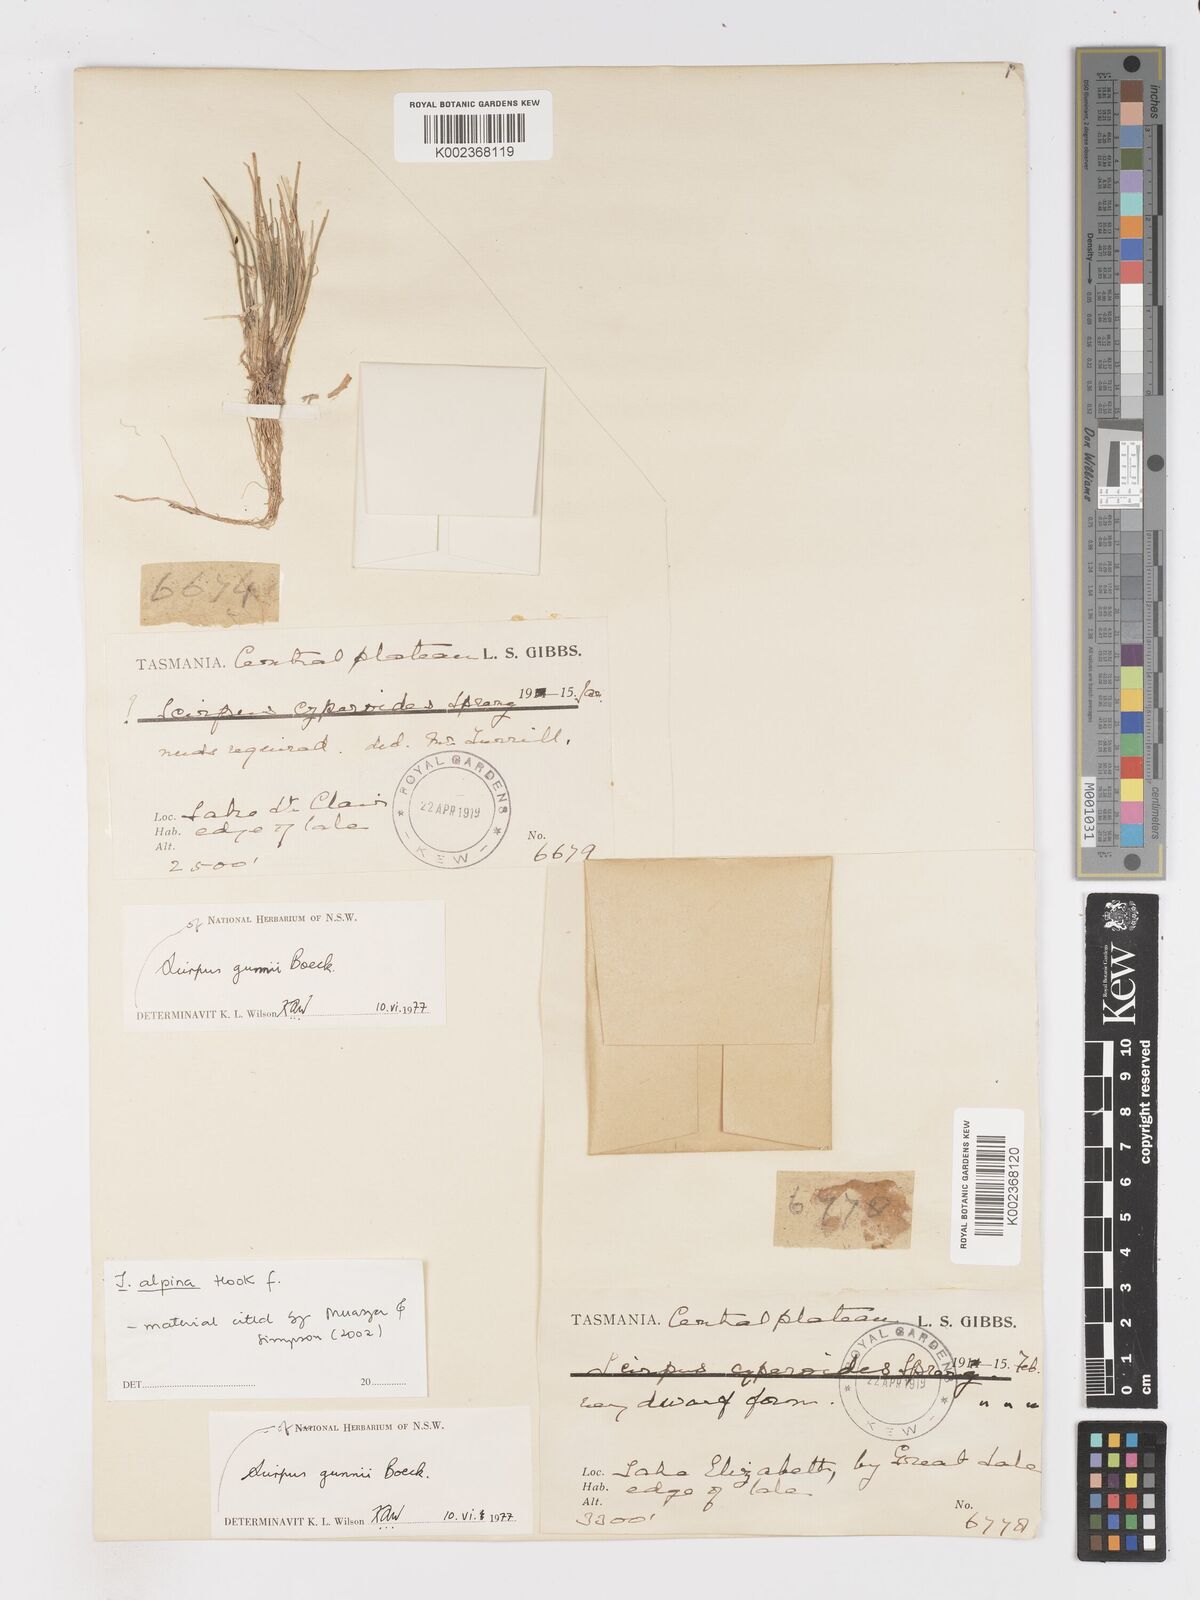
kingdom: Plantae
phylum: Tracheophyta
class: Liliopsida
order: Poales
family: Cyperaceae
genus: Isolepis
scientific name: Isolepis alpina
